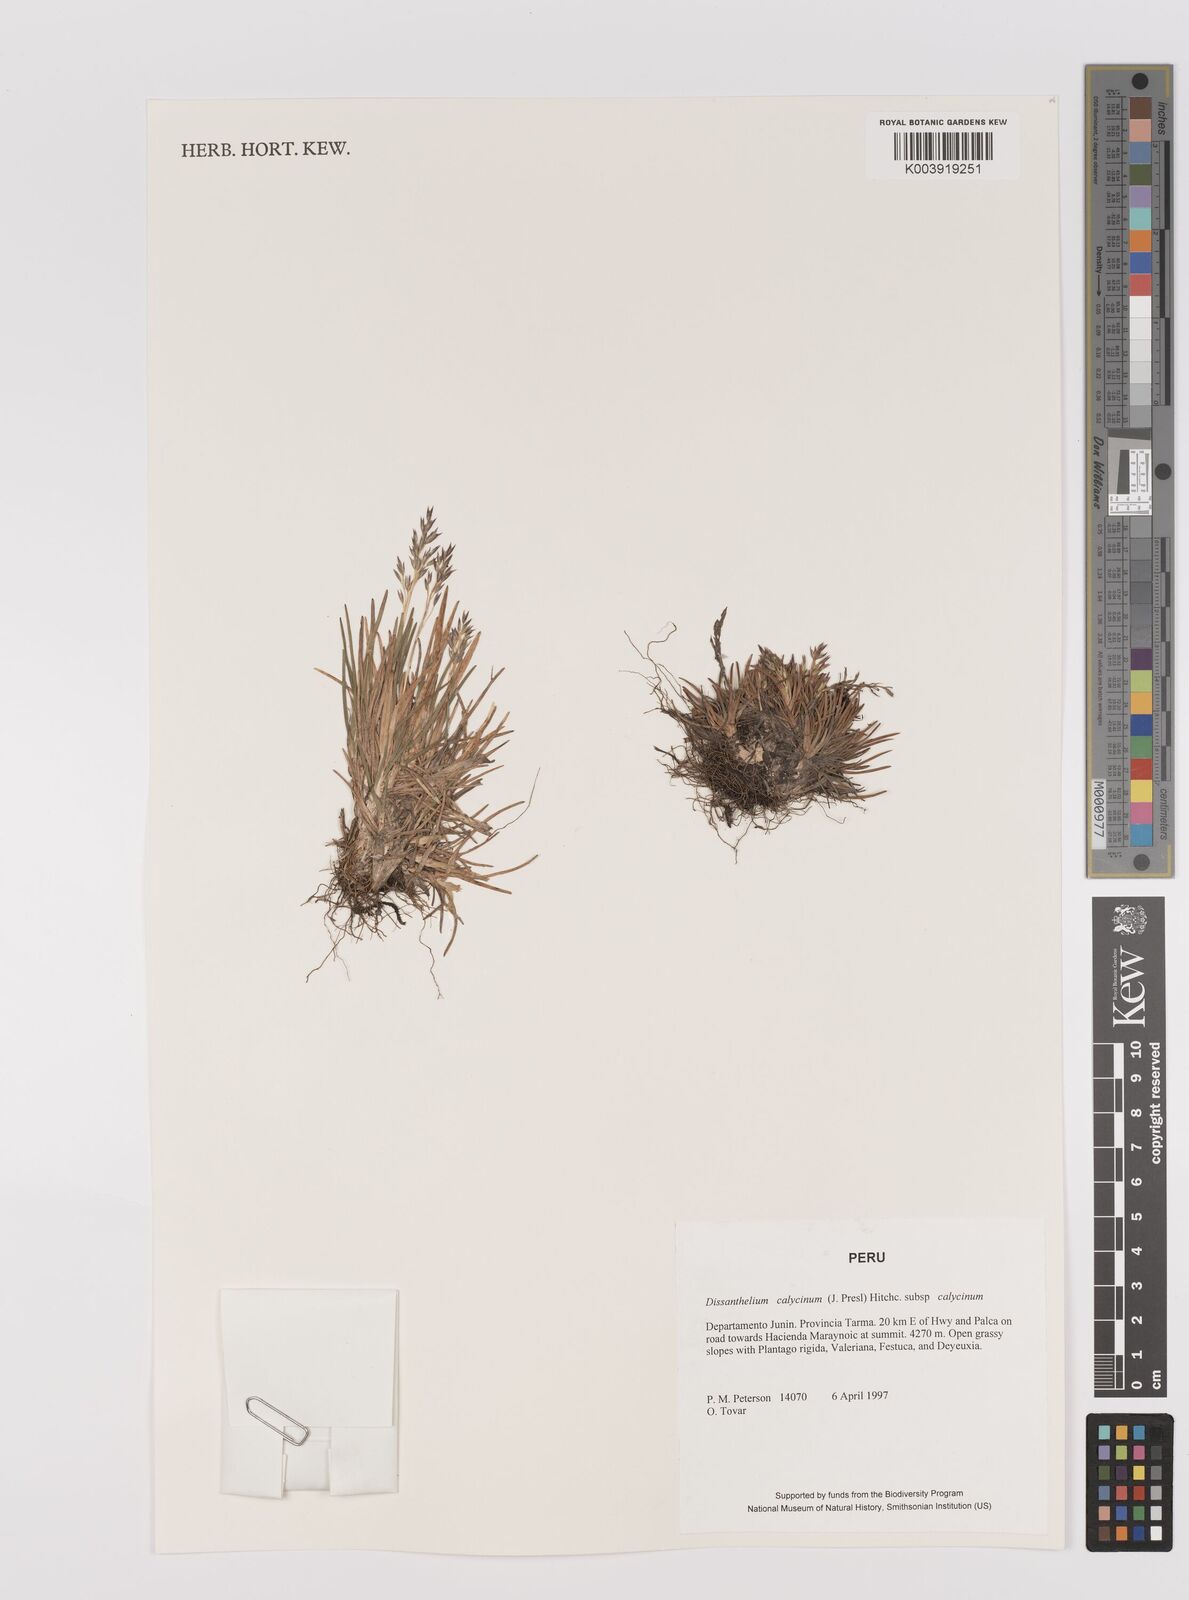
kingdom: Plantae
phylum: Tracheophyta
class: Liliopsida
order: Poales
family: Poaceae
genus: Poa
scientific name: Poa calycina
